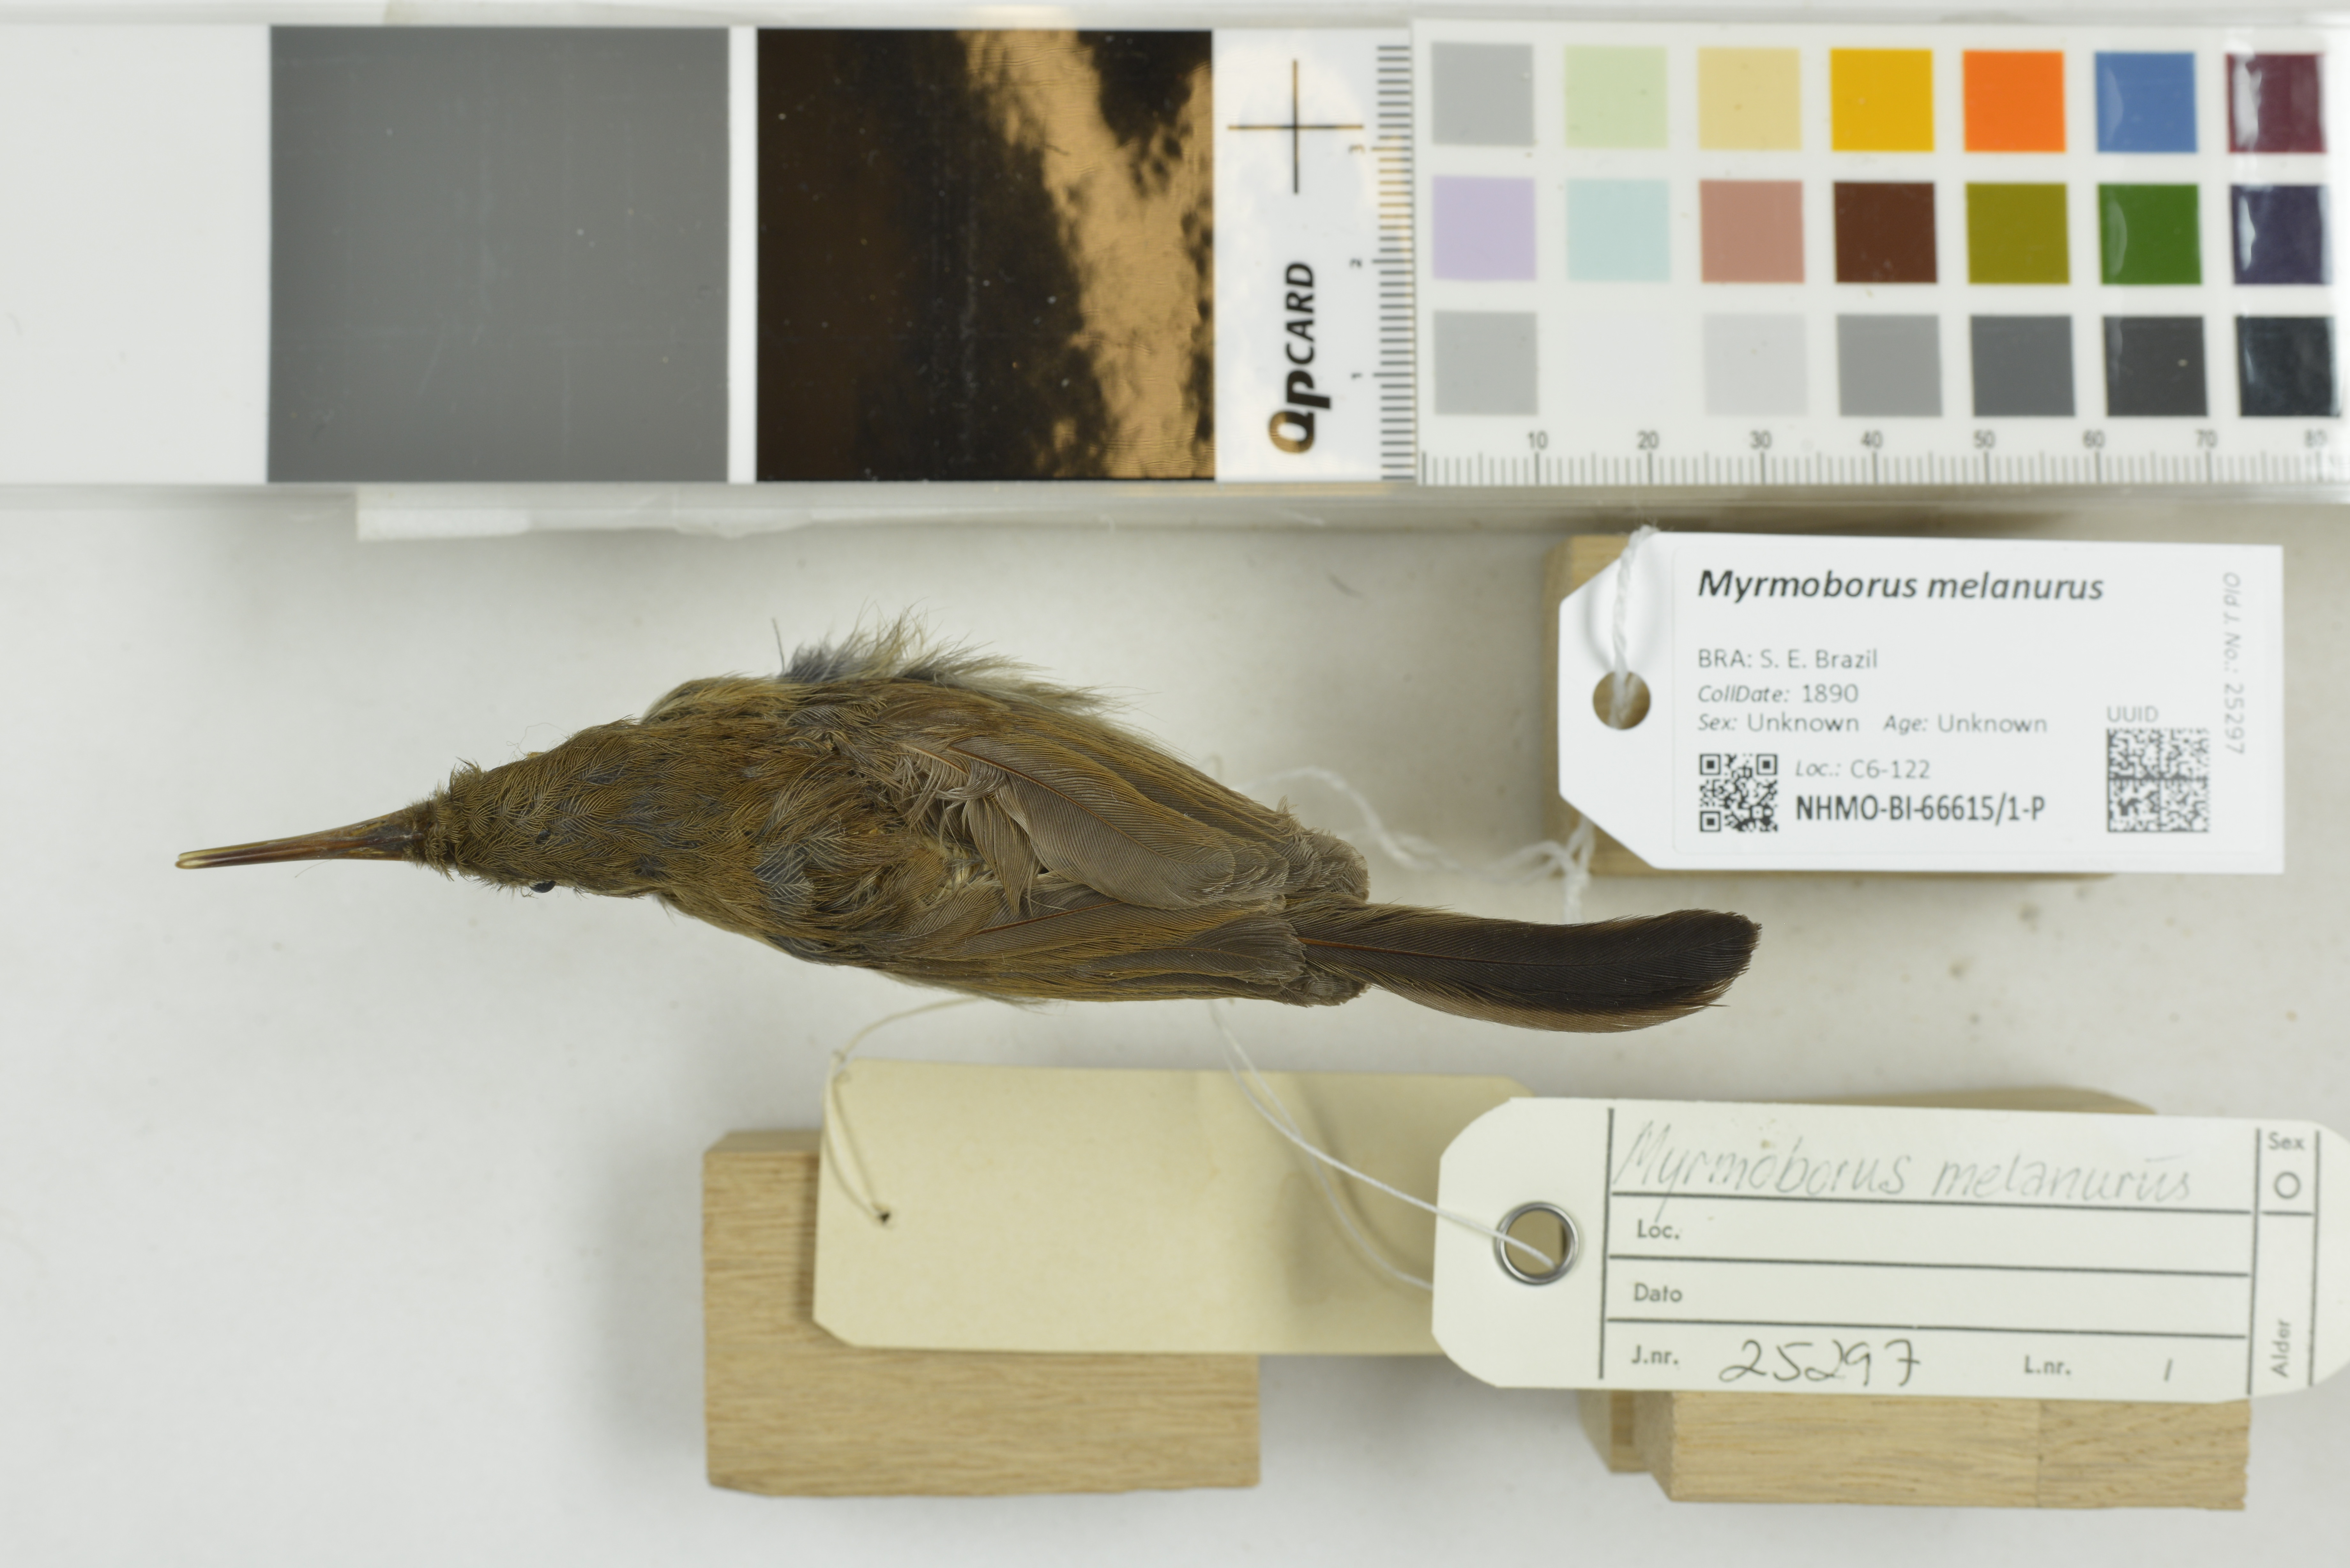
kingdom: Animalia
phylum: Chordata
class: Aves
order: Passeriformes
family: Thamnophilidae
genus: Myrmoborus
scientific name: Myrmoborus melanurus
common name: Black-tailed antbird
